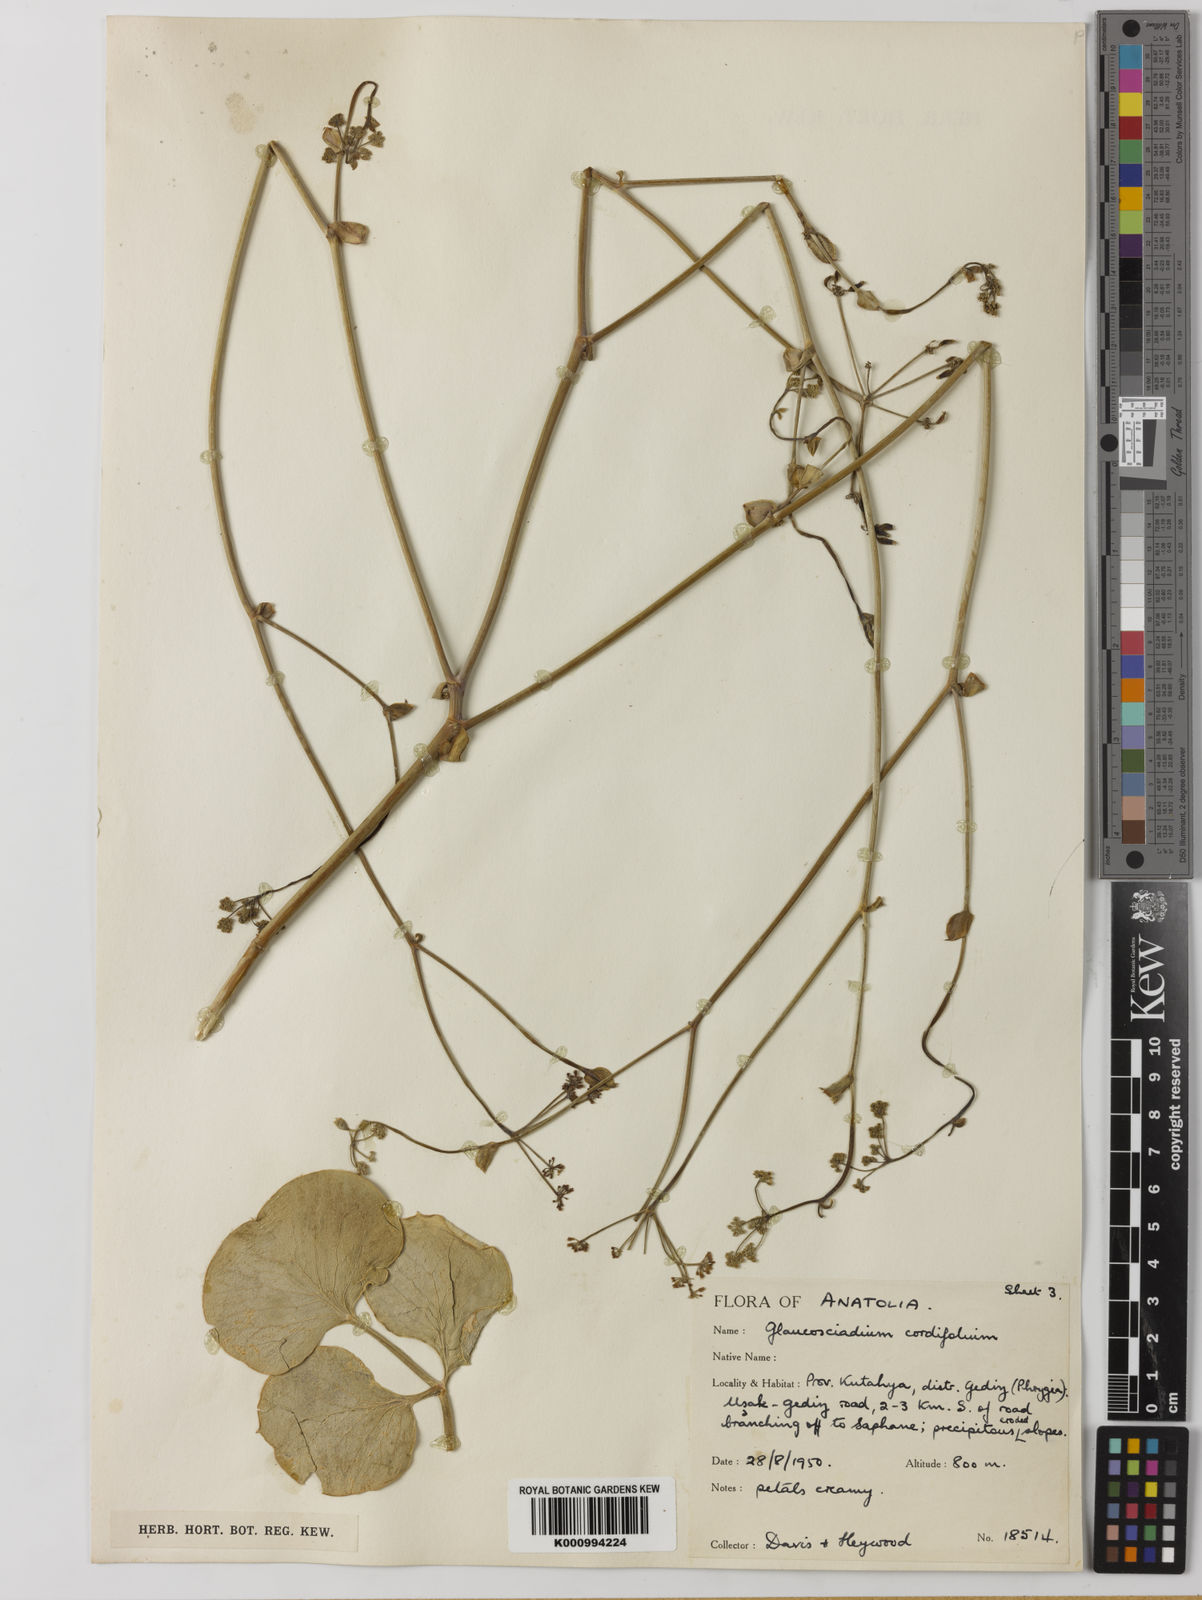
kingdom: Plantae
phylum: Tracheophyta
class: Magnoliopsida
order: Apiales
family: Apiaceae
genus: Glaucosciadium
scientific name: Glaucosciadium cordifolium
